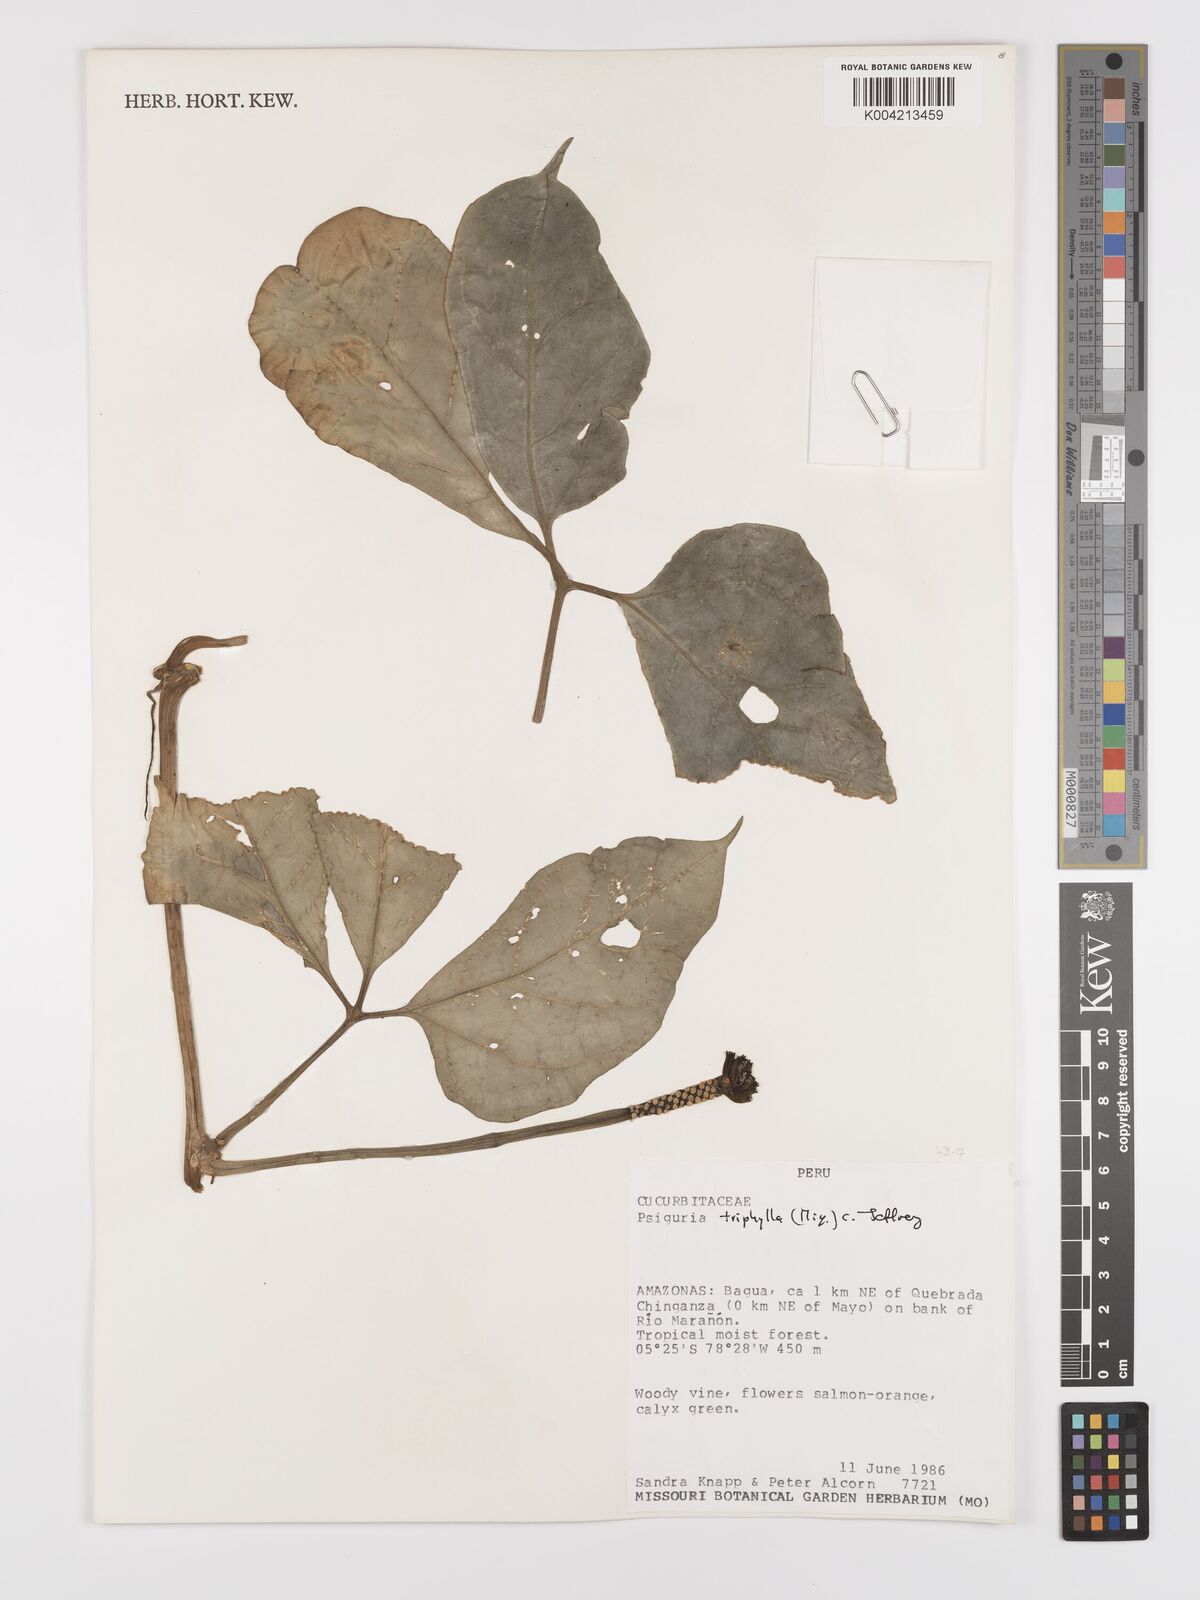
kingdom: Plantae
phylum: Tracheophyta
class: Magnoliopsida
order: Cucurbitales
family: Cucurbitaceae
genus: Psiguria
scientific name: Psiguria triphylla
